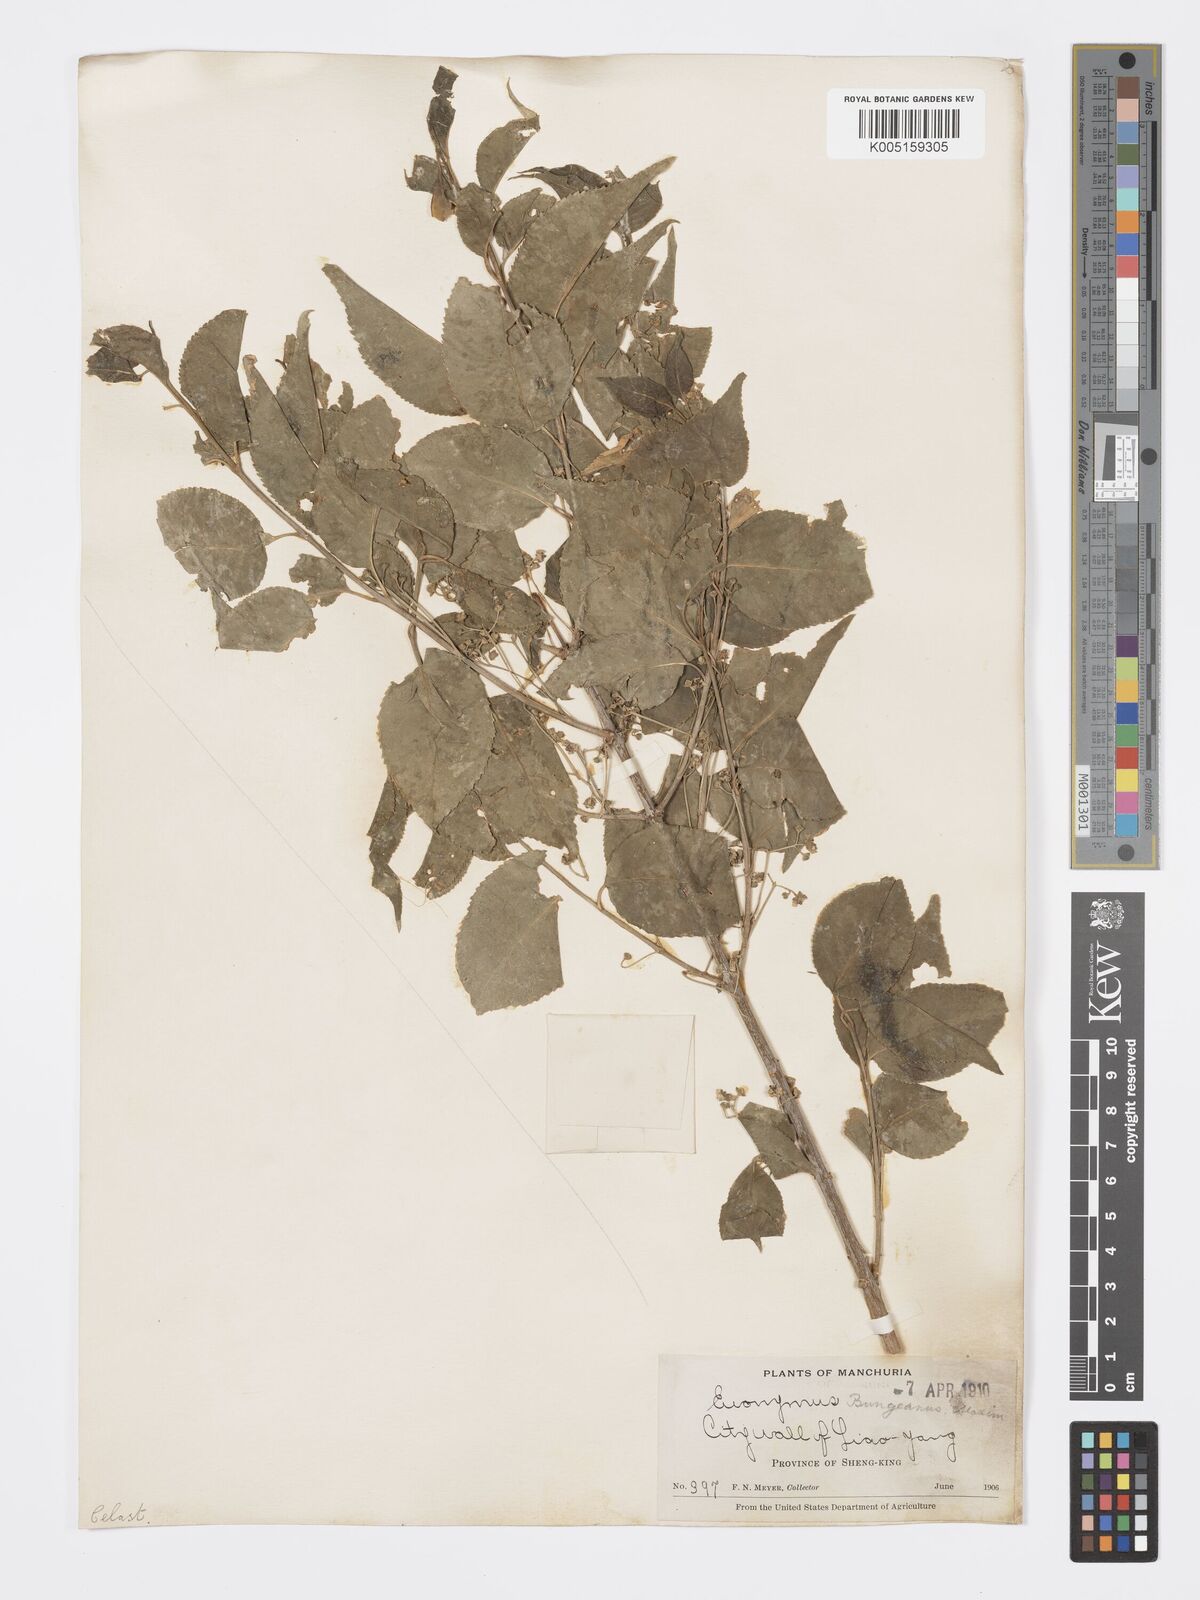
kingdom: Plantae
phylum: Tracheophyta
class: Magnoliopsida
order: Celastrales
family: Celastraceae
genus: Euonymus
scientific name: Euonymus maackii
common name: Hamilton's spindletree
